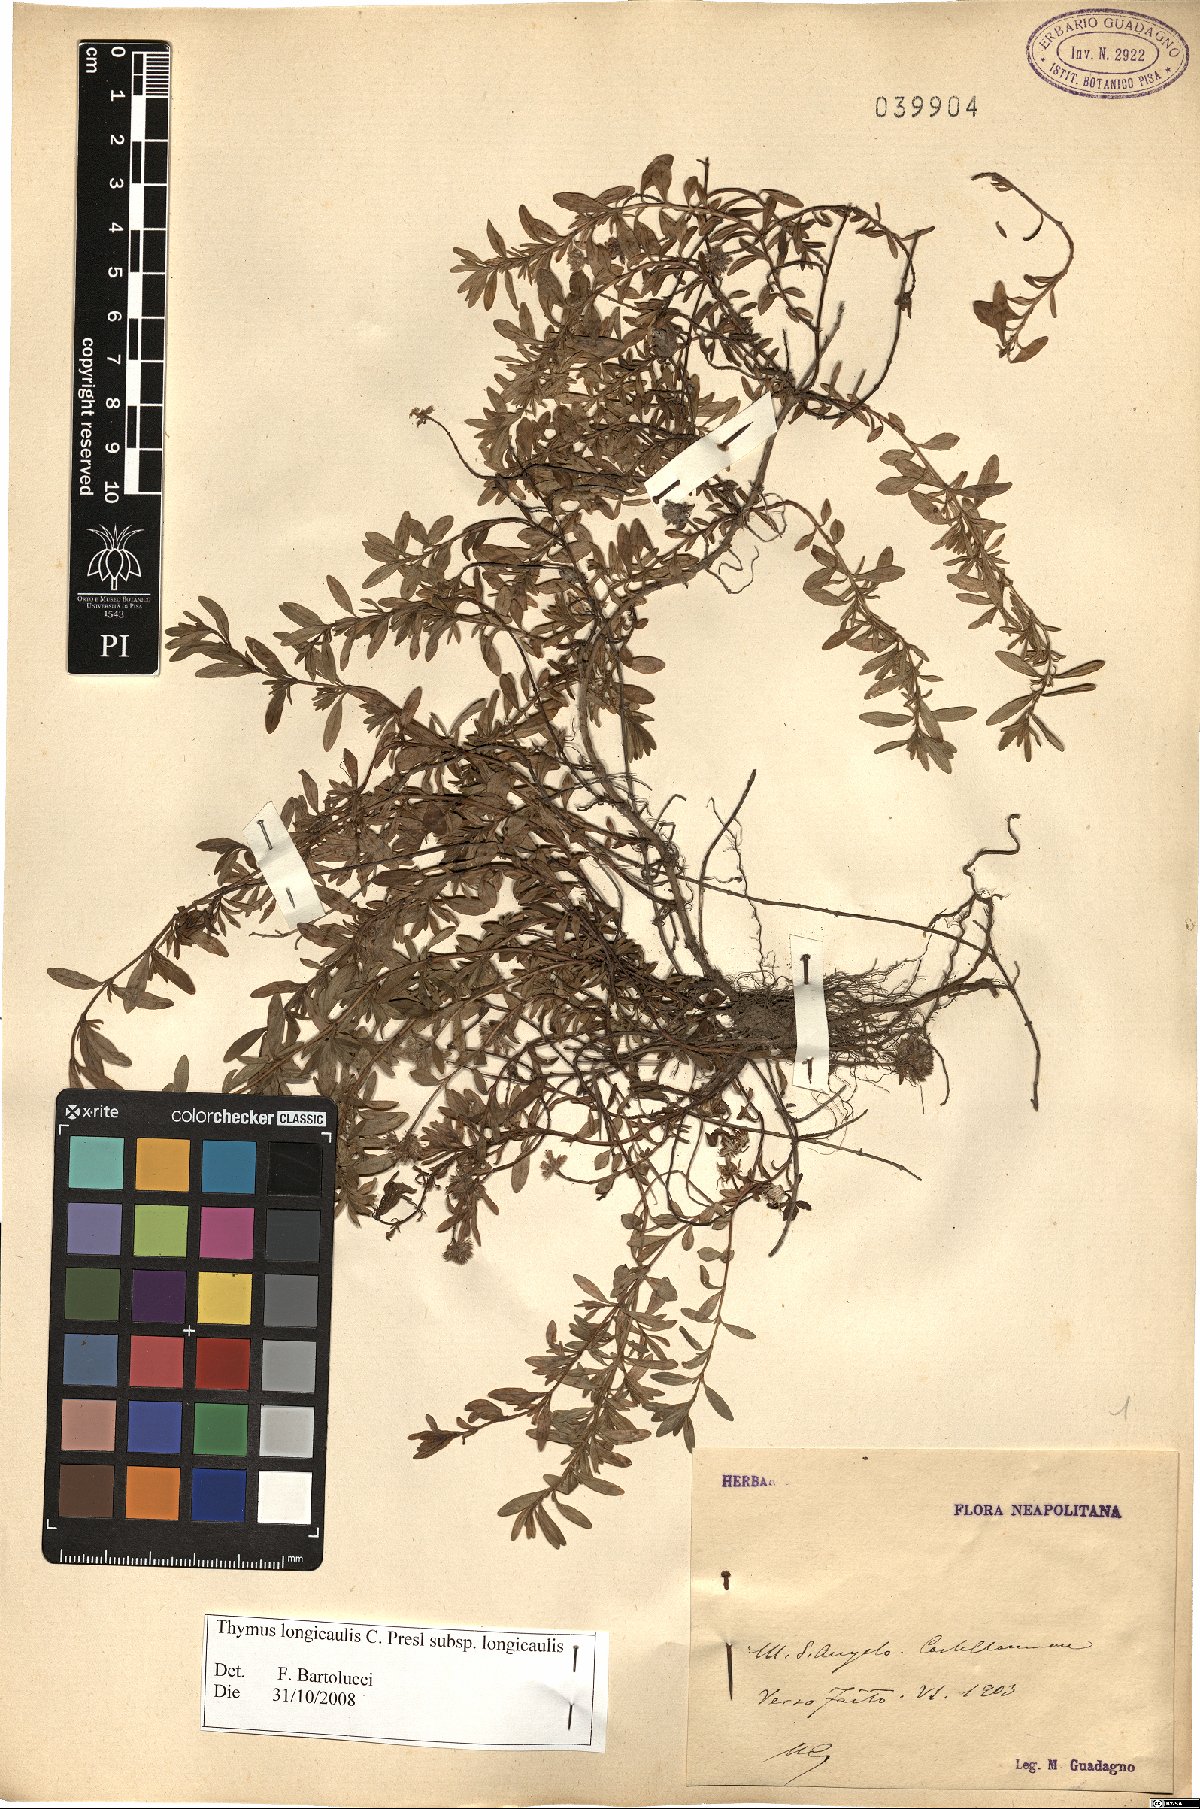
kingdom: Plantae
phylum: Tracheophyta
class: Magnoliopsida
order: Lamiales
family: Lamiaceae
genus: Thymus
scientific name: Thymus longicaulis
